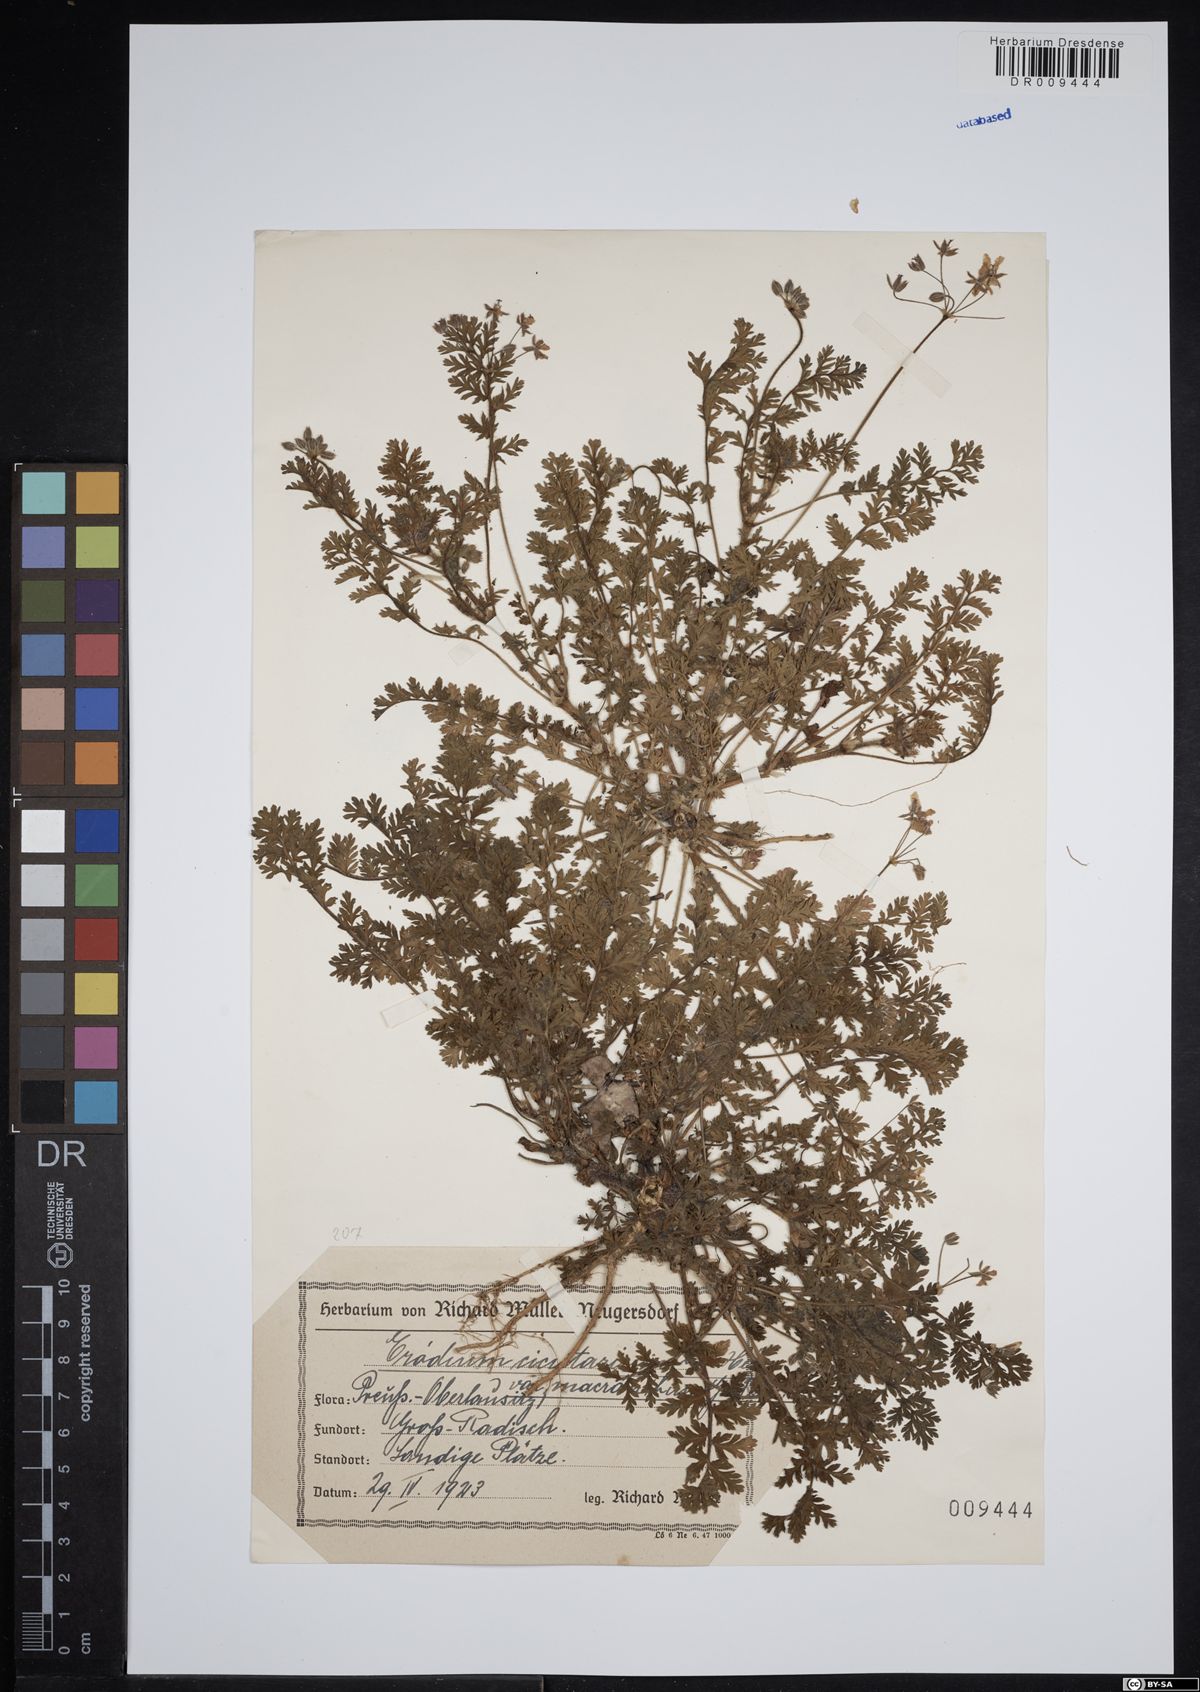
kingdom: Plantae
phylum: Tracheophyta
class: Magnoliopsida
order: Geraniales
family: Geraniaceae
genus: Erodium
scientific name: Erodium cicutarium
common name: Common stork's-bill
